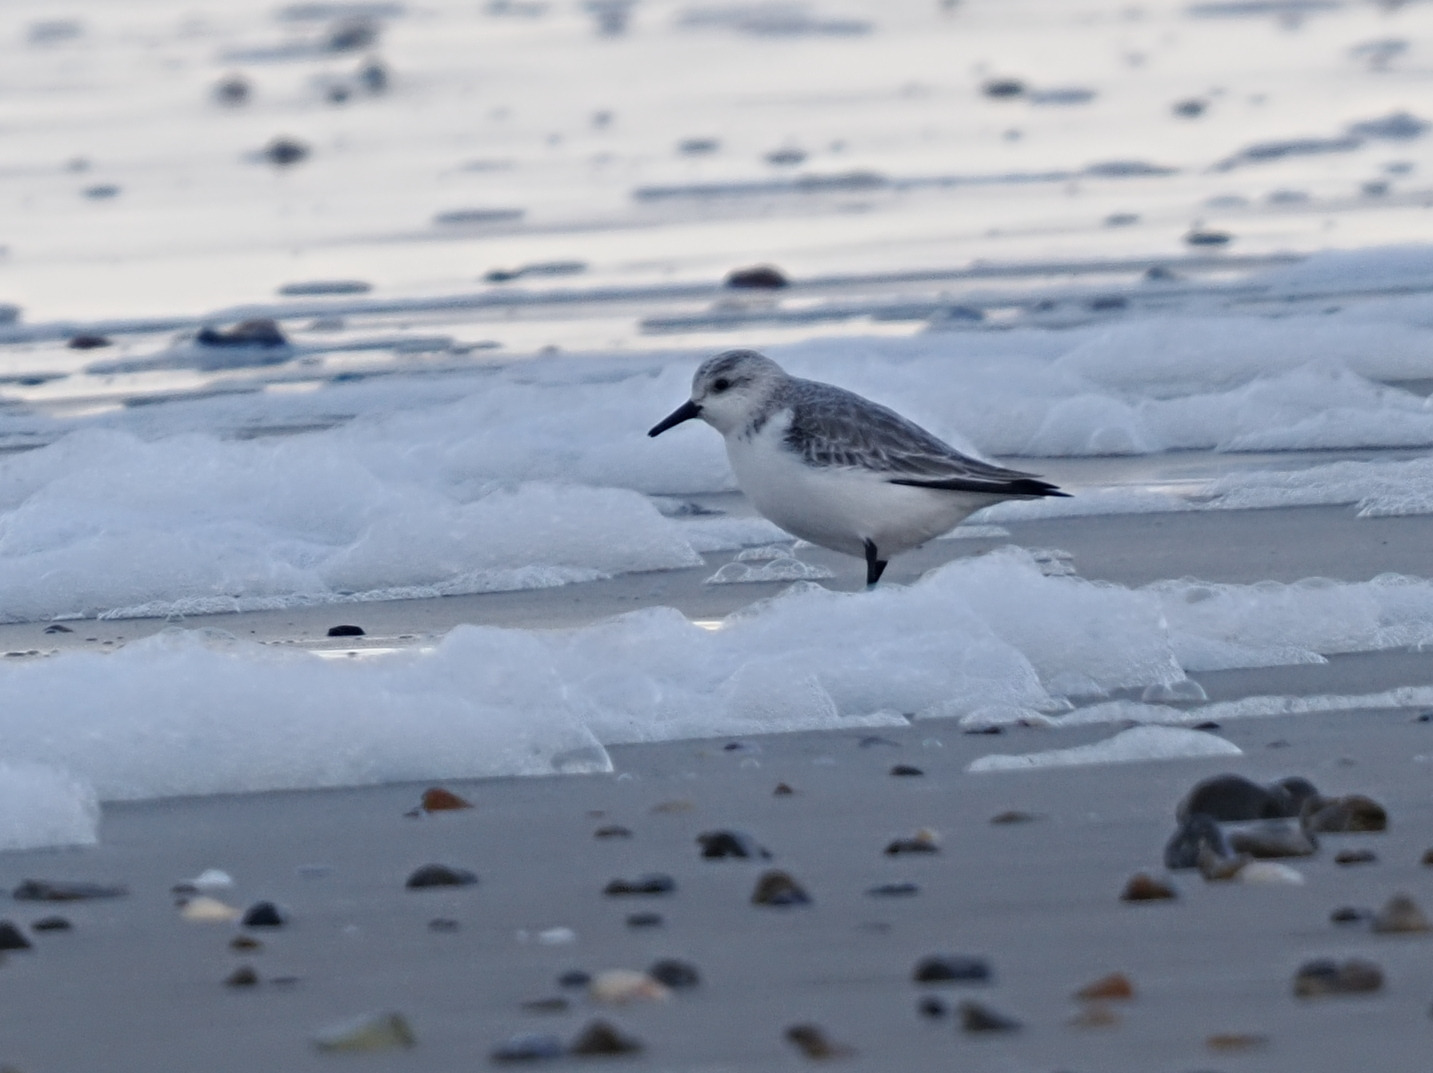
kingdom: Animalia
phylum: Chordata
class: Aves
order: Charadriiformes
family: Scolopacidae
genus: Calidris
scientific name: Calidris alba
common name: Sandløber
